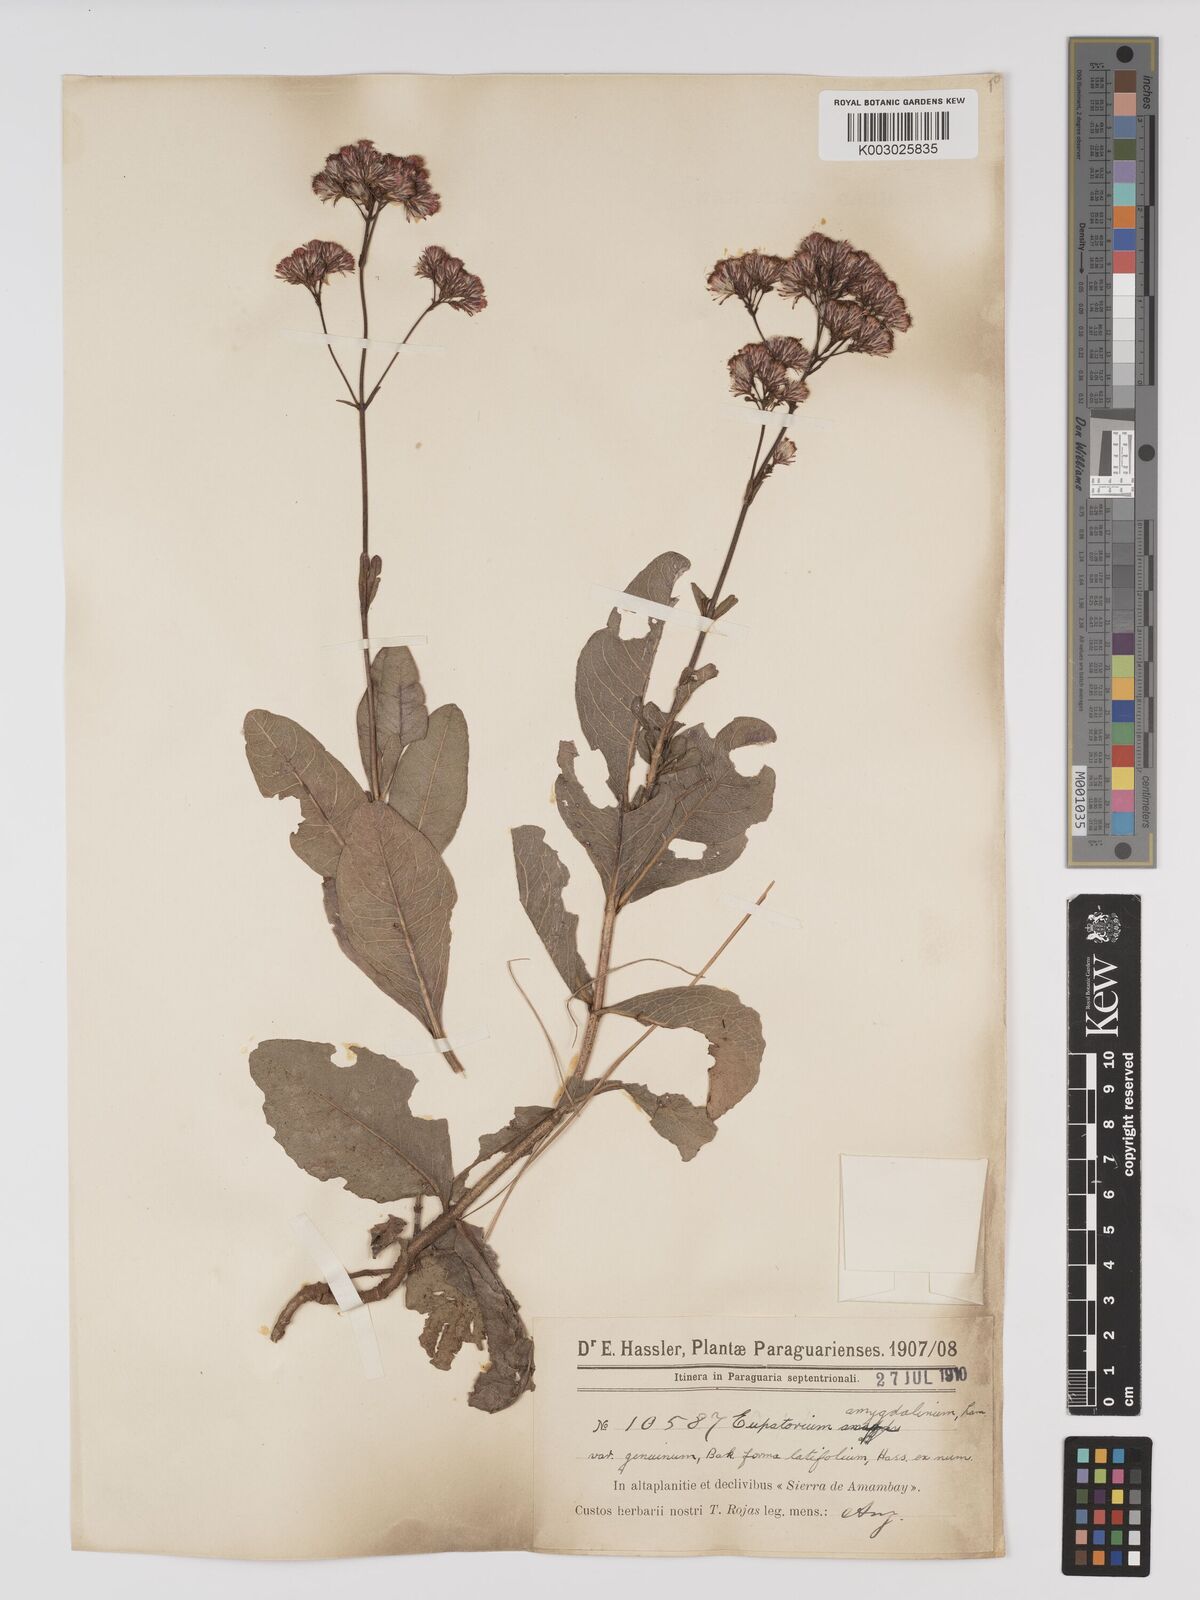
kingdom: Plantae
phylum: Tracheophyta
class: Magnoliopsida
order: Asterales
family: Asteraceae
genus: Ayapana
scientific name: Ayapana amygdalina
